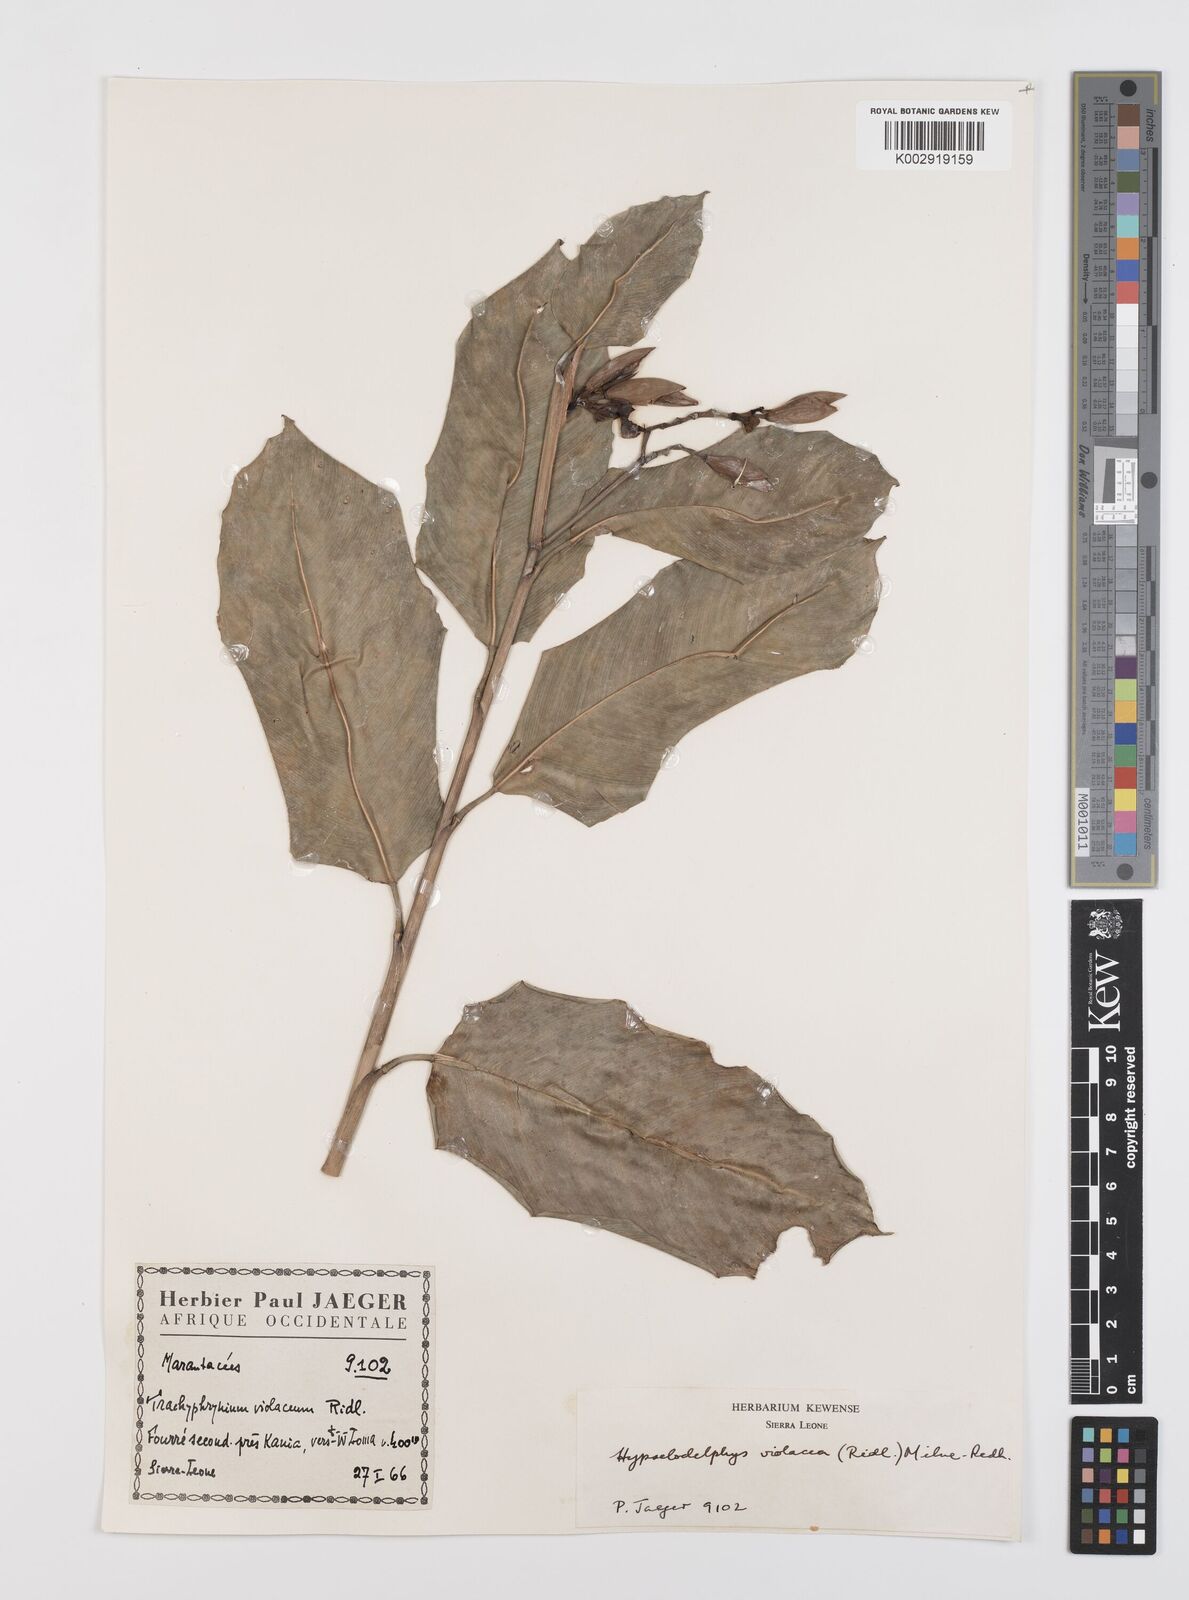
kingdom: Plantae
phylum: Tracheophyta
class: Liliopsida
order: Zingiberales
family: Marantaceae
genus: Hypselodelphys
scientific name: Hypselodelphys violacea
